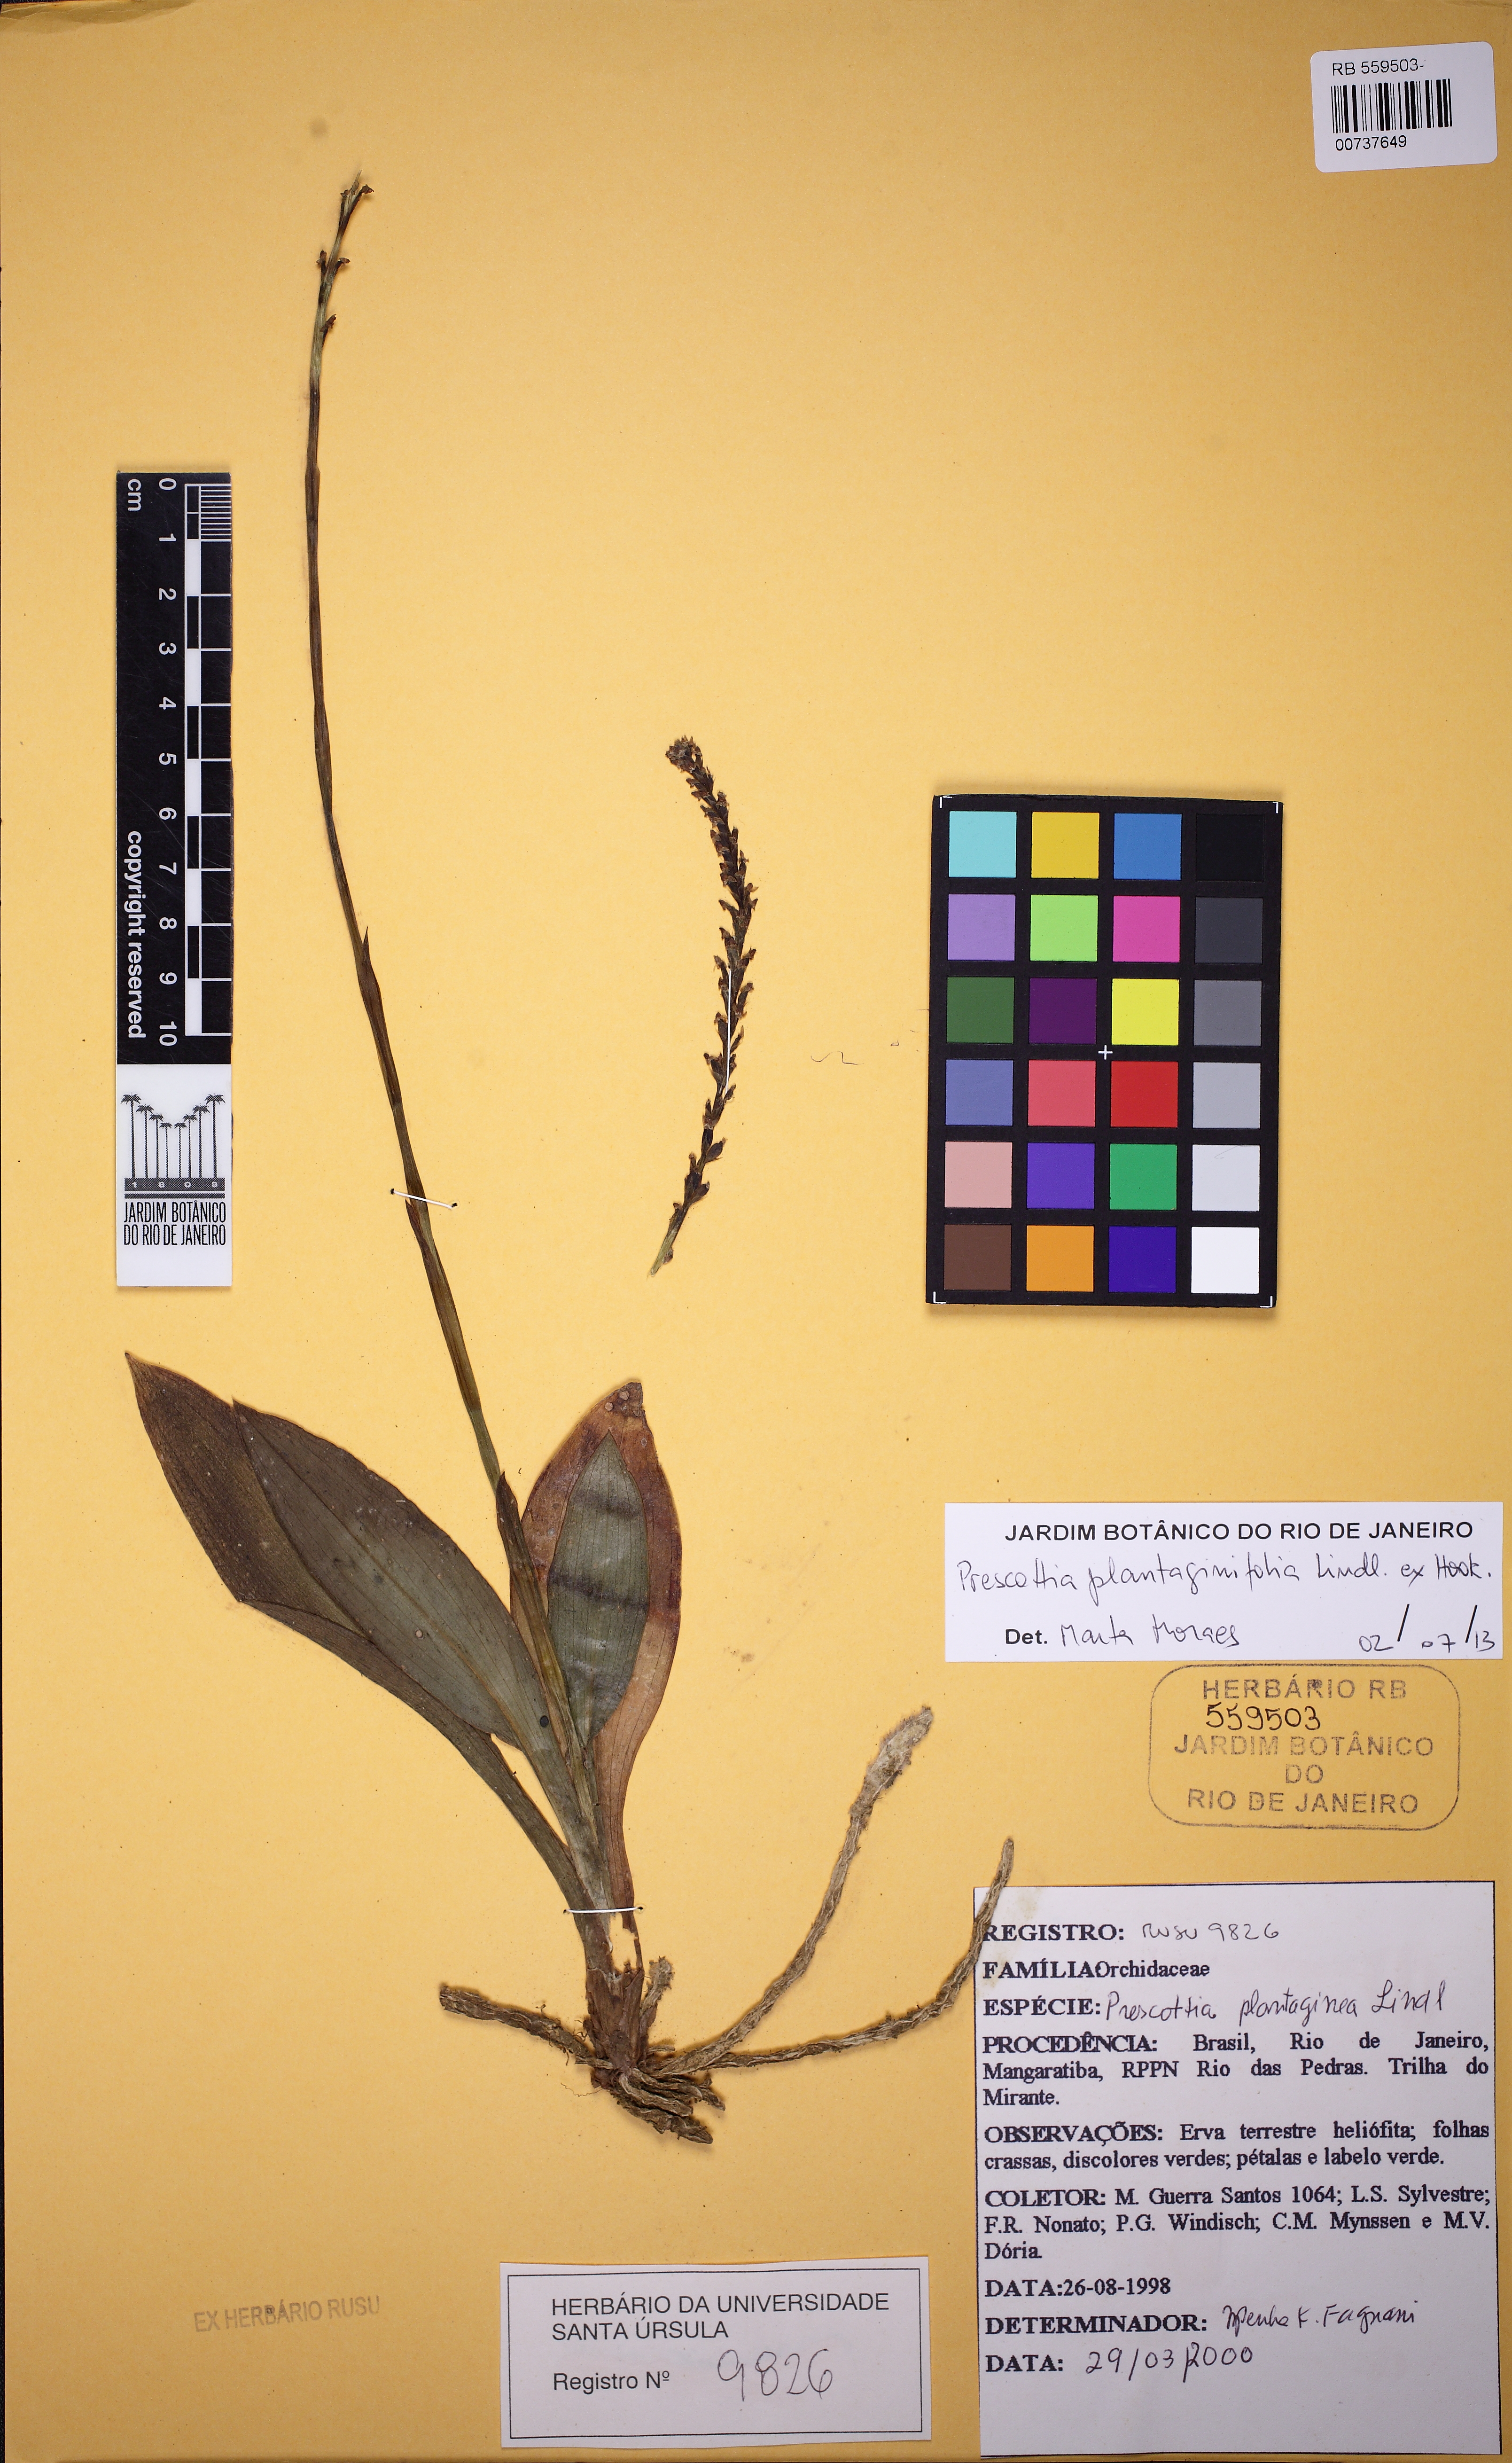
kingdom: Plantae
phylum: Tracheophyta
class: Liliopsida
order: Asparagales
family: Orchidaceae
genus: Prescottia
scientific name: Prescottia plantaginifolia
